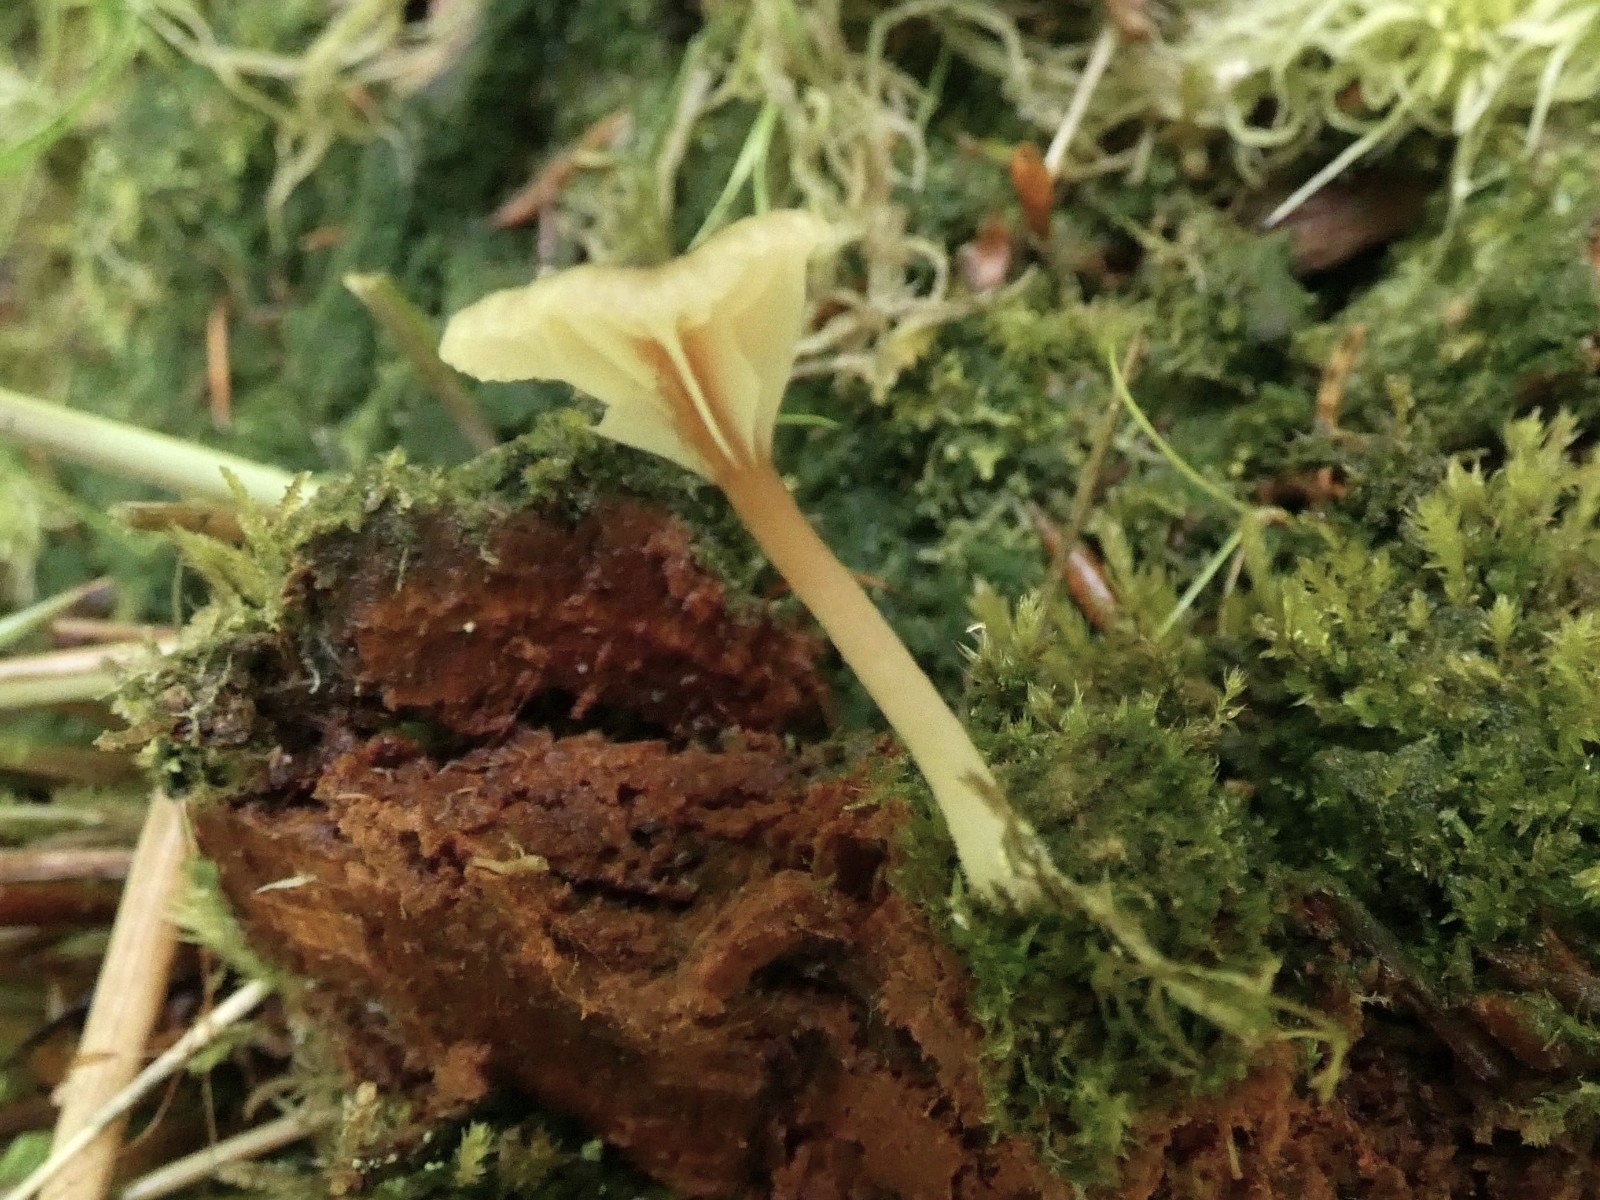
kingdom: Fungi
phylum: Basidiomycota
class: Agaricomycetes
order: Agaricales
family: Hygrophoraceae
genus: Lichenomphalia
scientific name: Lichenomphalia umbellifera
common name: tørve-lavhat
